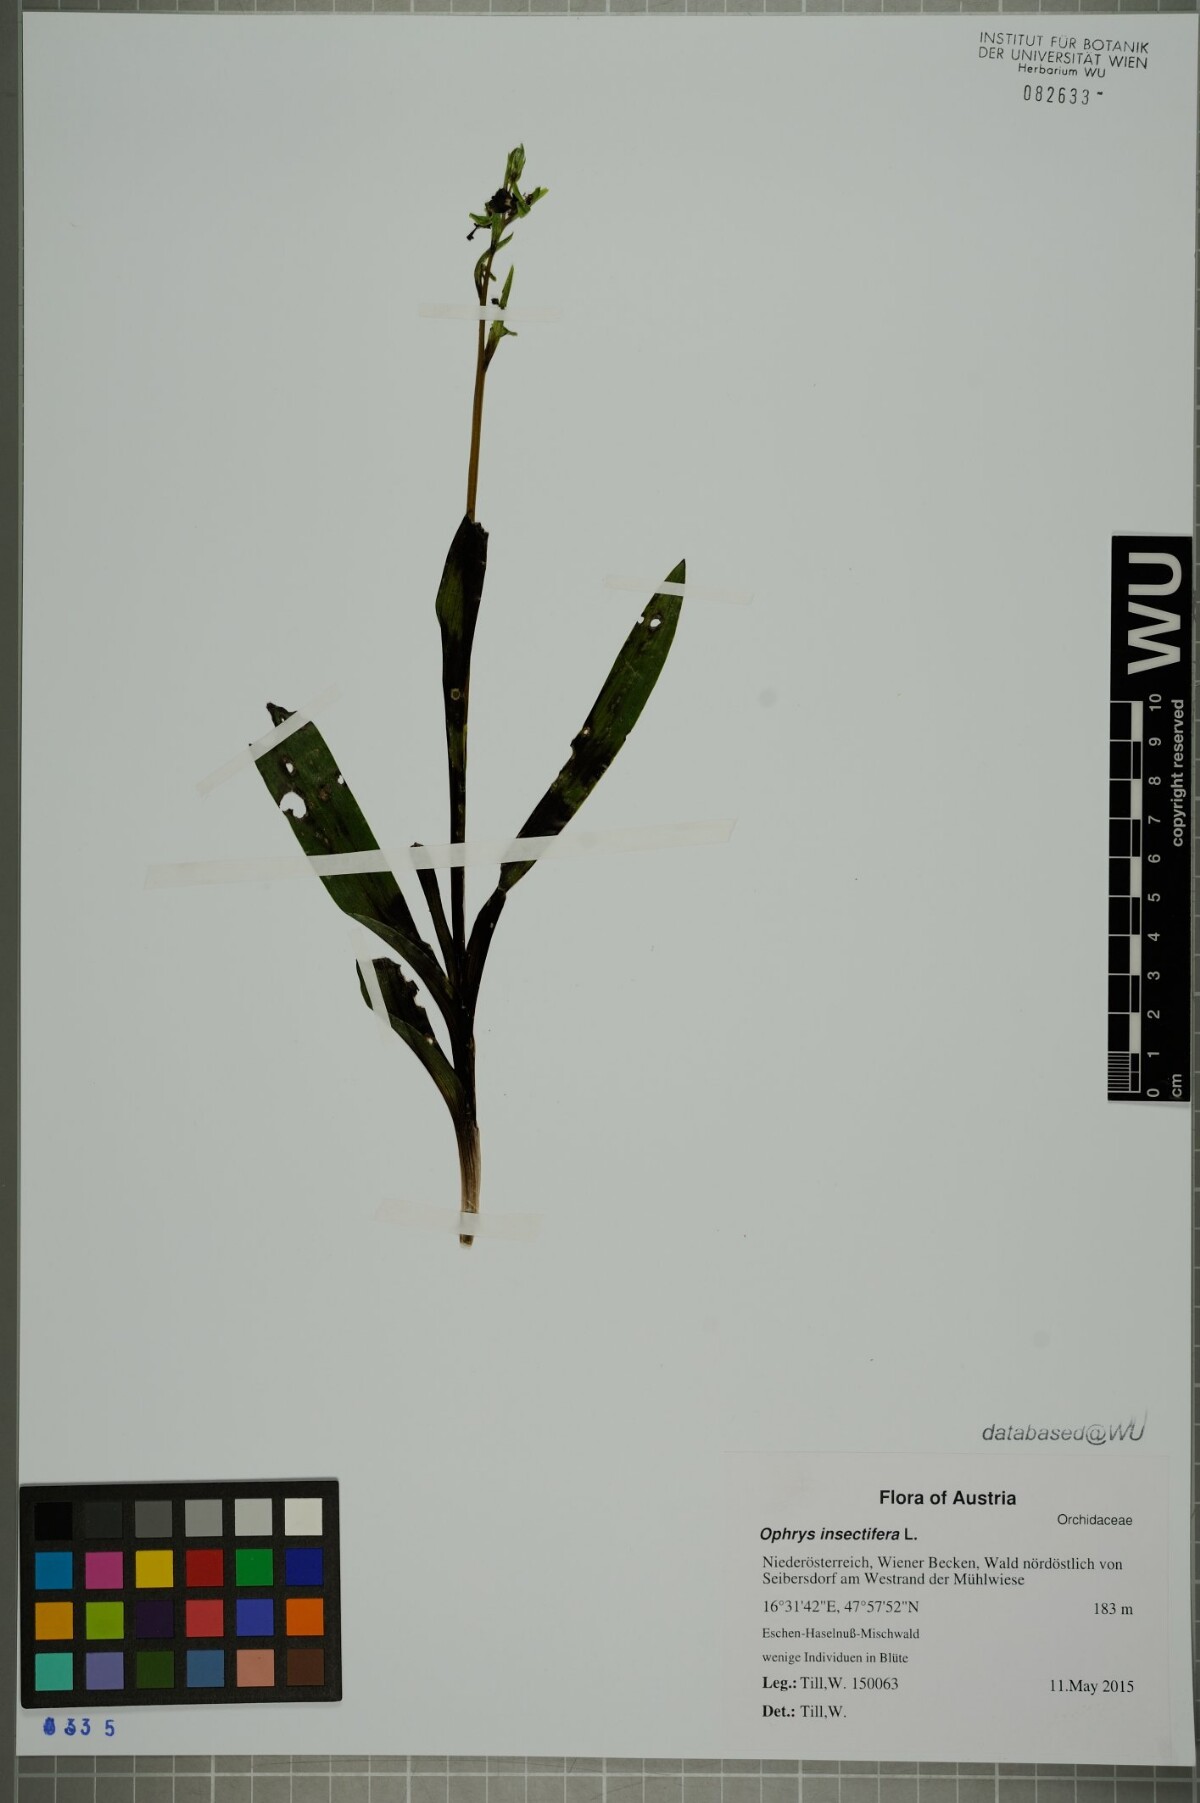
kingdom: Plantae
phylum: Tracheophyta
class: Liliopsida
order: Asparagales
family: Orchidaceae
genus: Ophrys
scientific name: Ophrys insectifera
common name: Fly orchid
